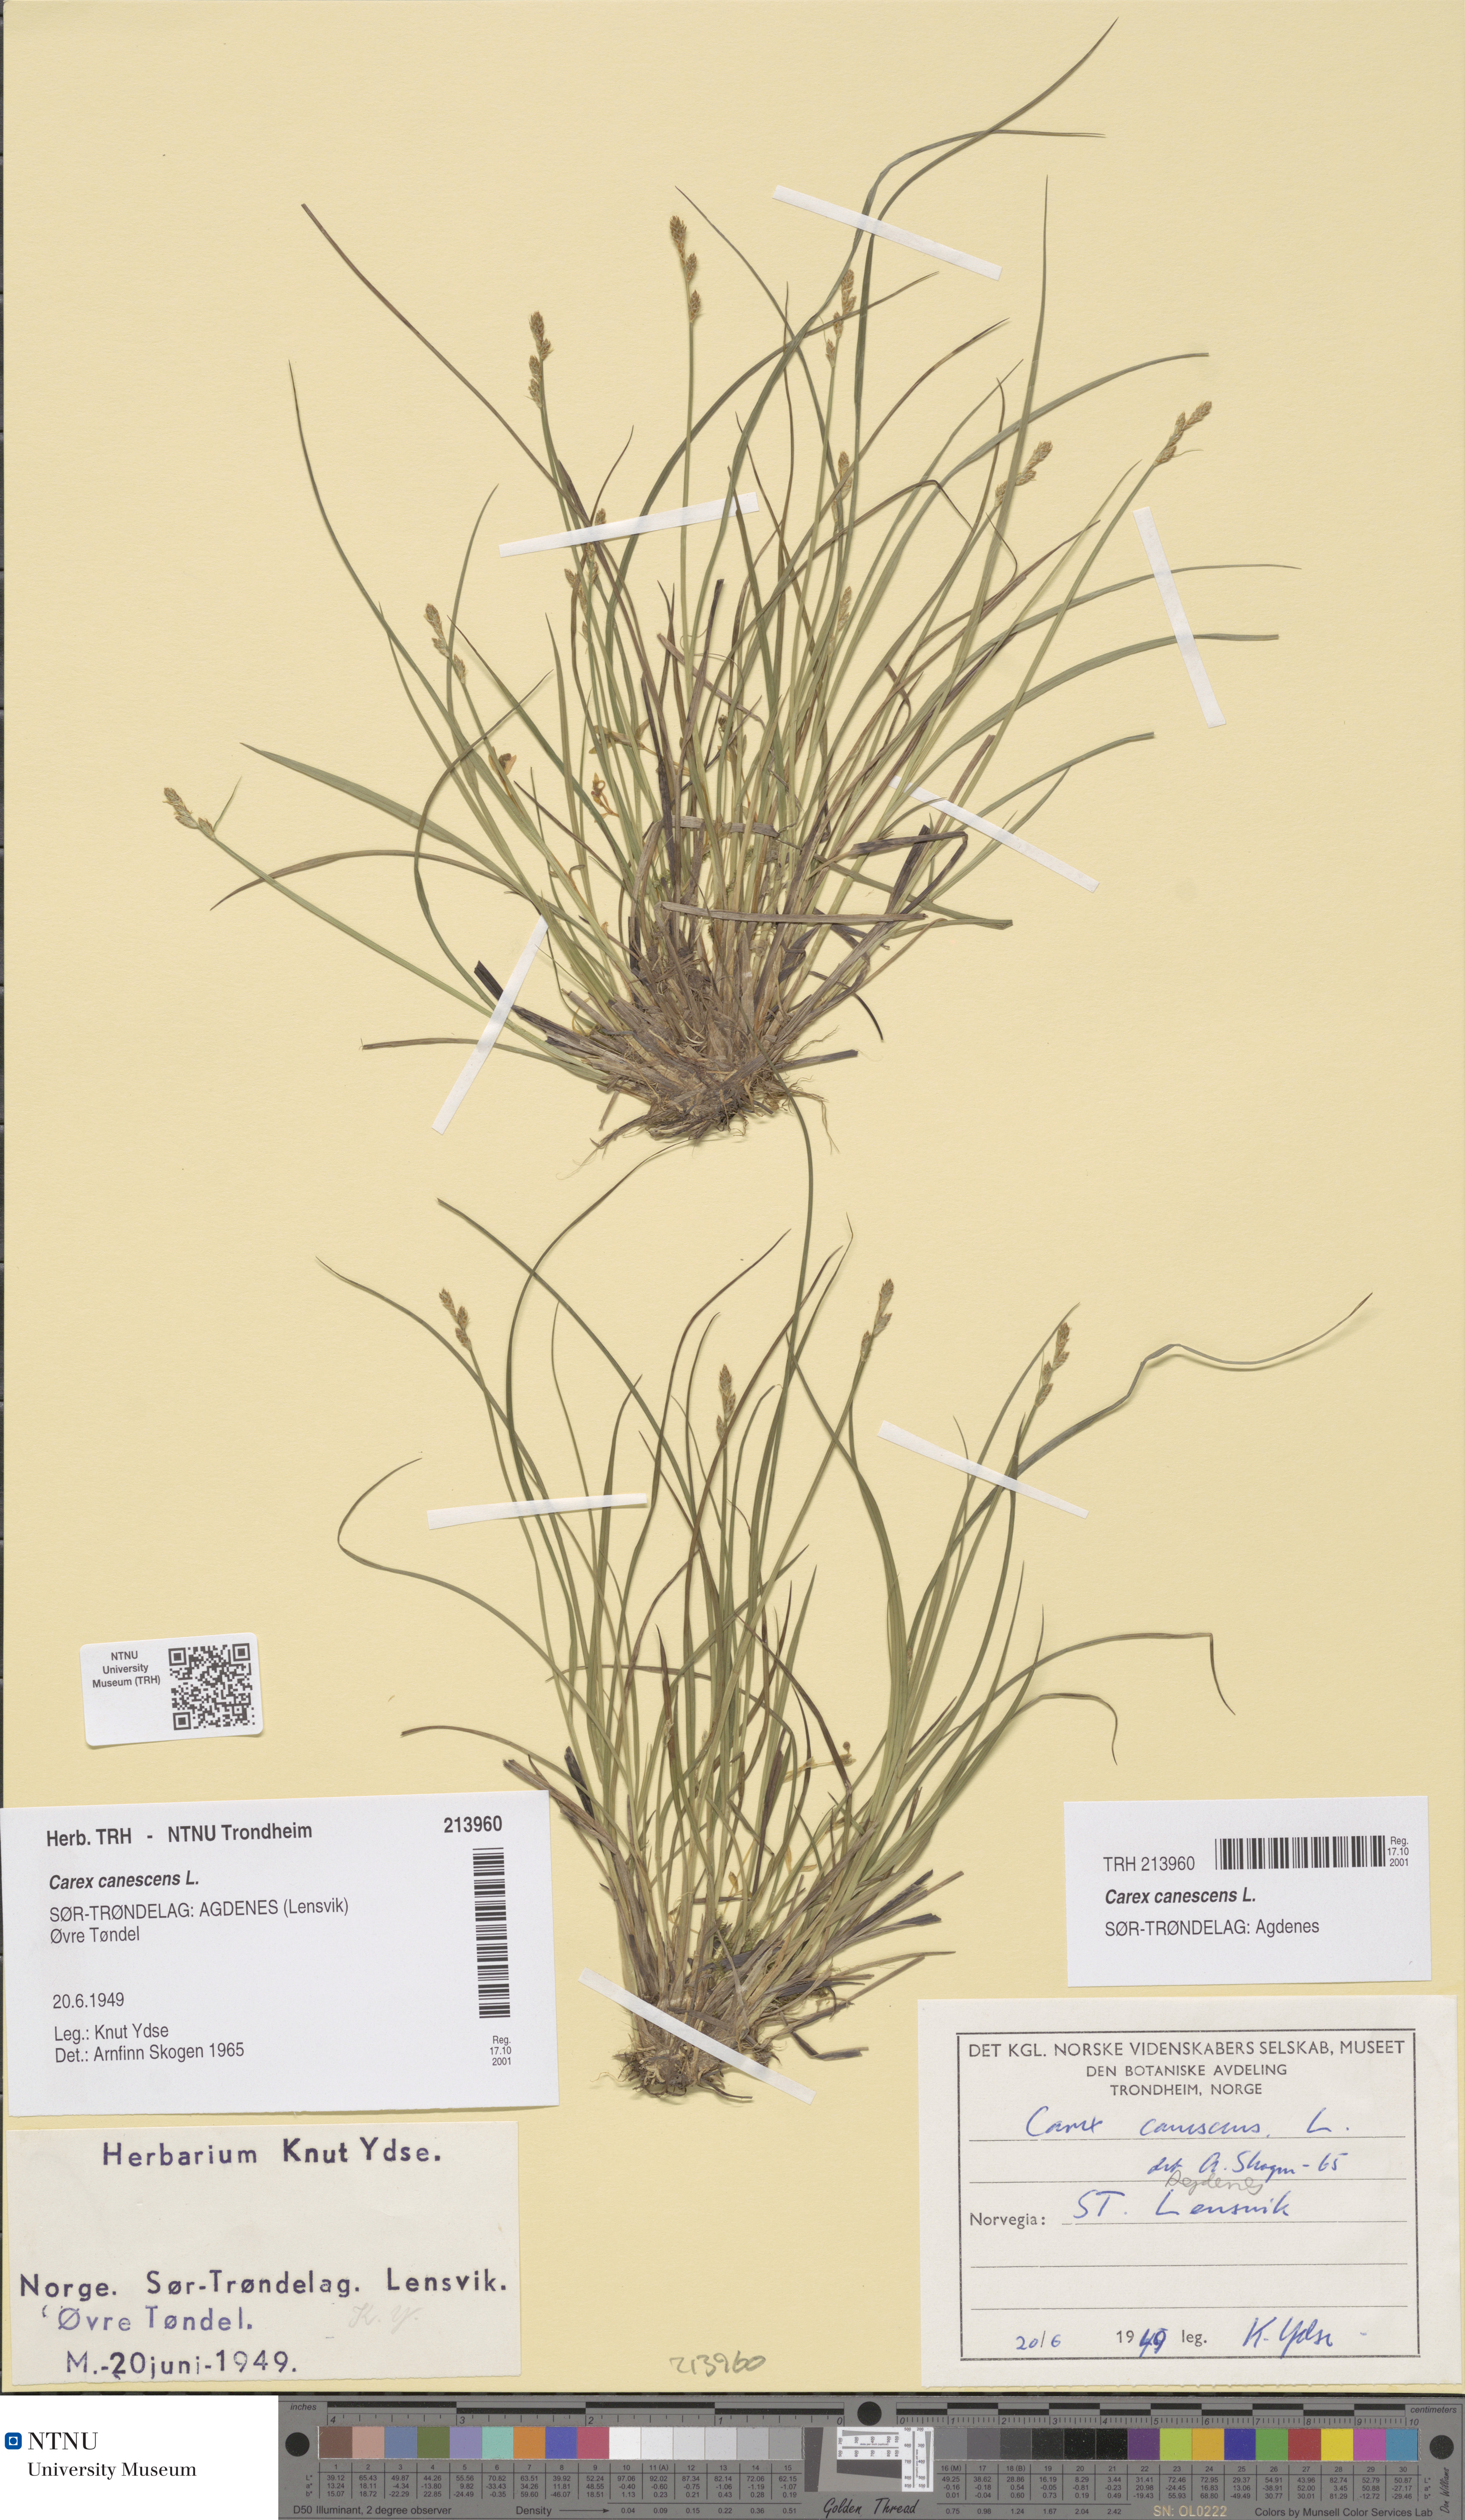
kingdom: Plantae
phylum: Tracheophyta
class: Liliopsida
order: Poales
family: Cyperaceae
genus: Carex
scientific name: Carex canescens
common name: White sedge
